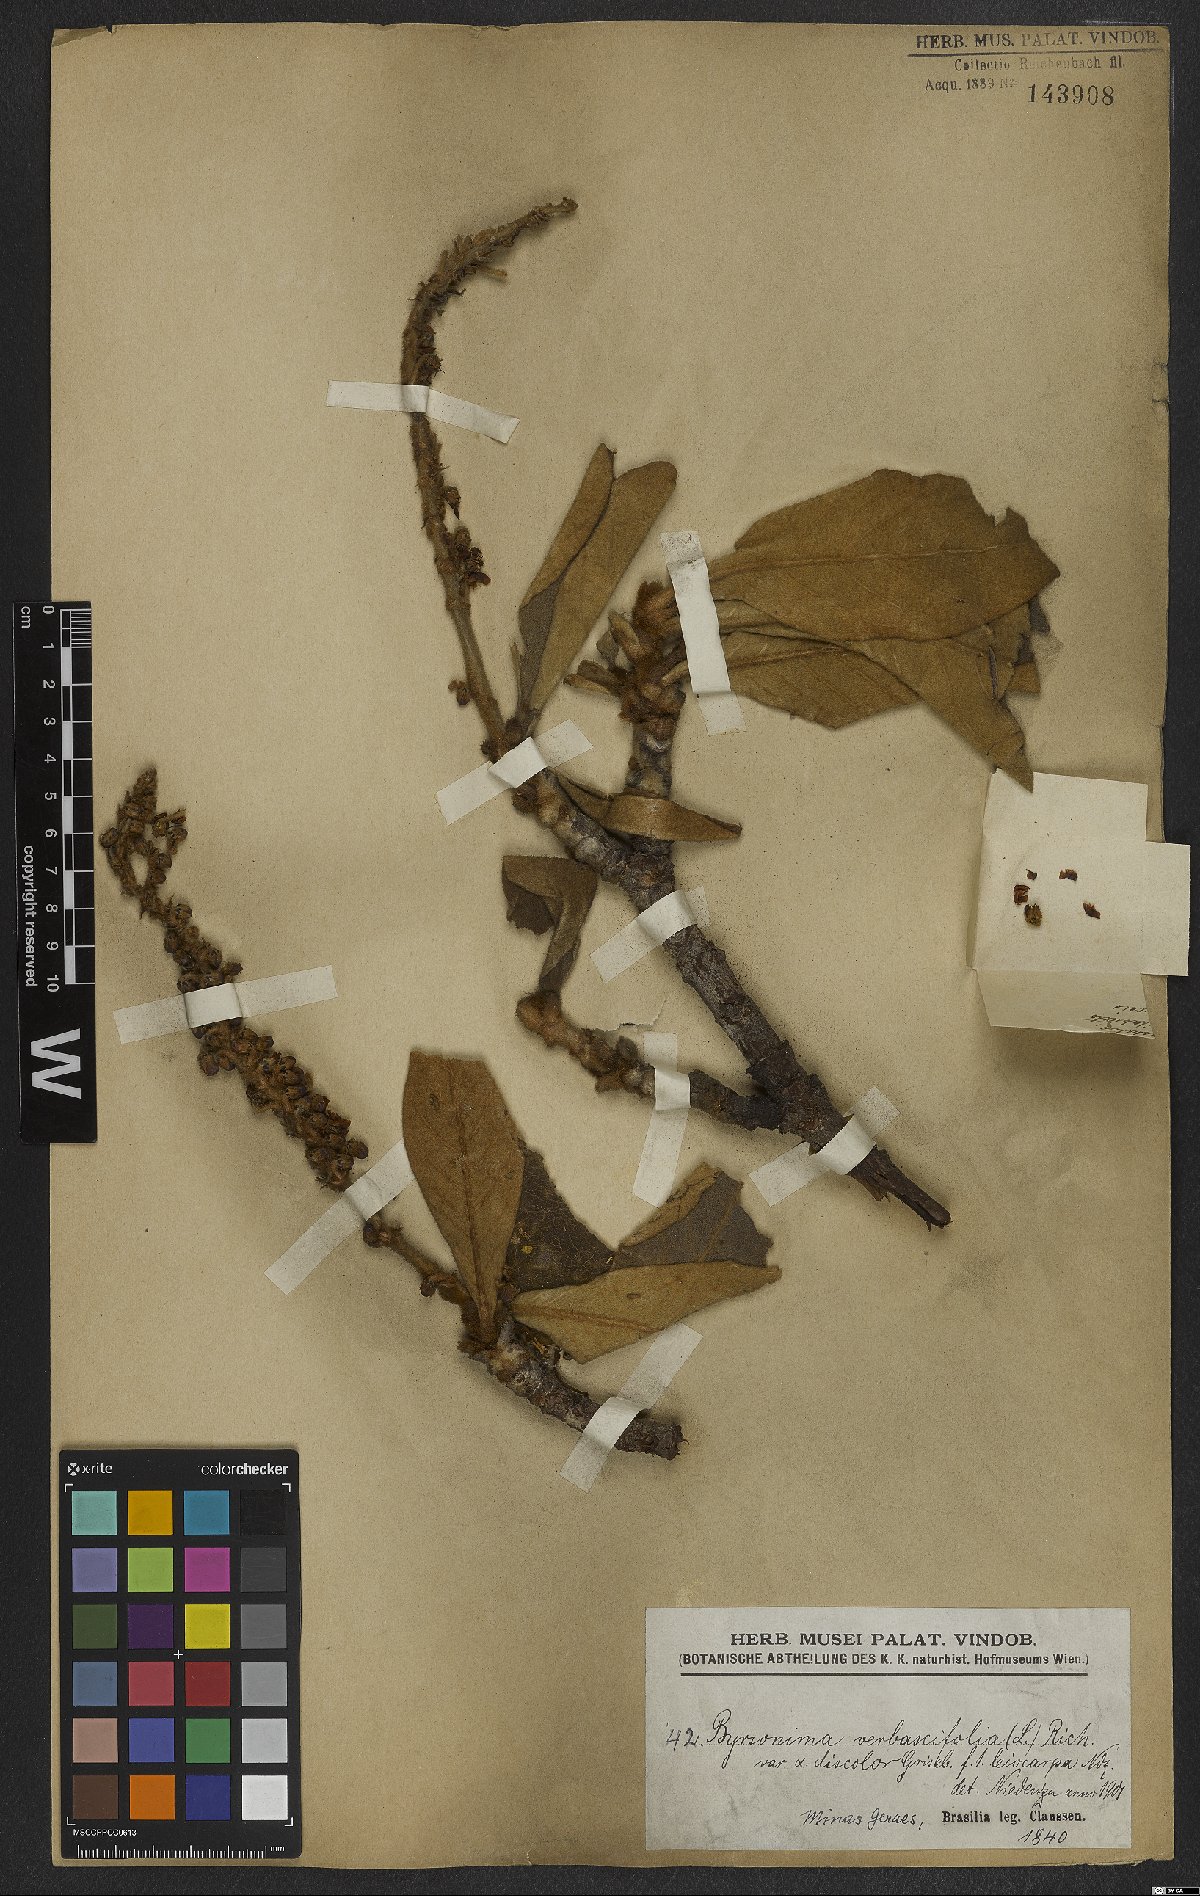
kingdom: Plantae
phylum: Tracheophyta
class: Magnoliopsida
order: Malpighiales
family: Malpighiaceae
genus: Byrsonima
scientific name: Byrsonima verbascifolia
